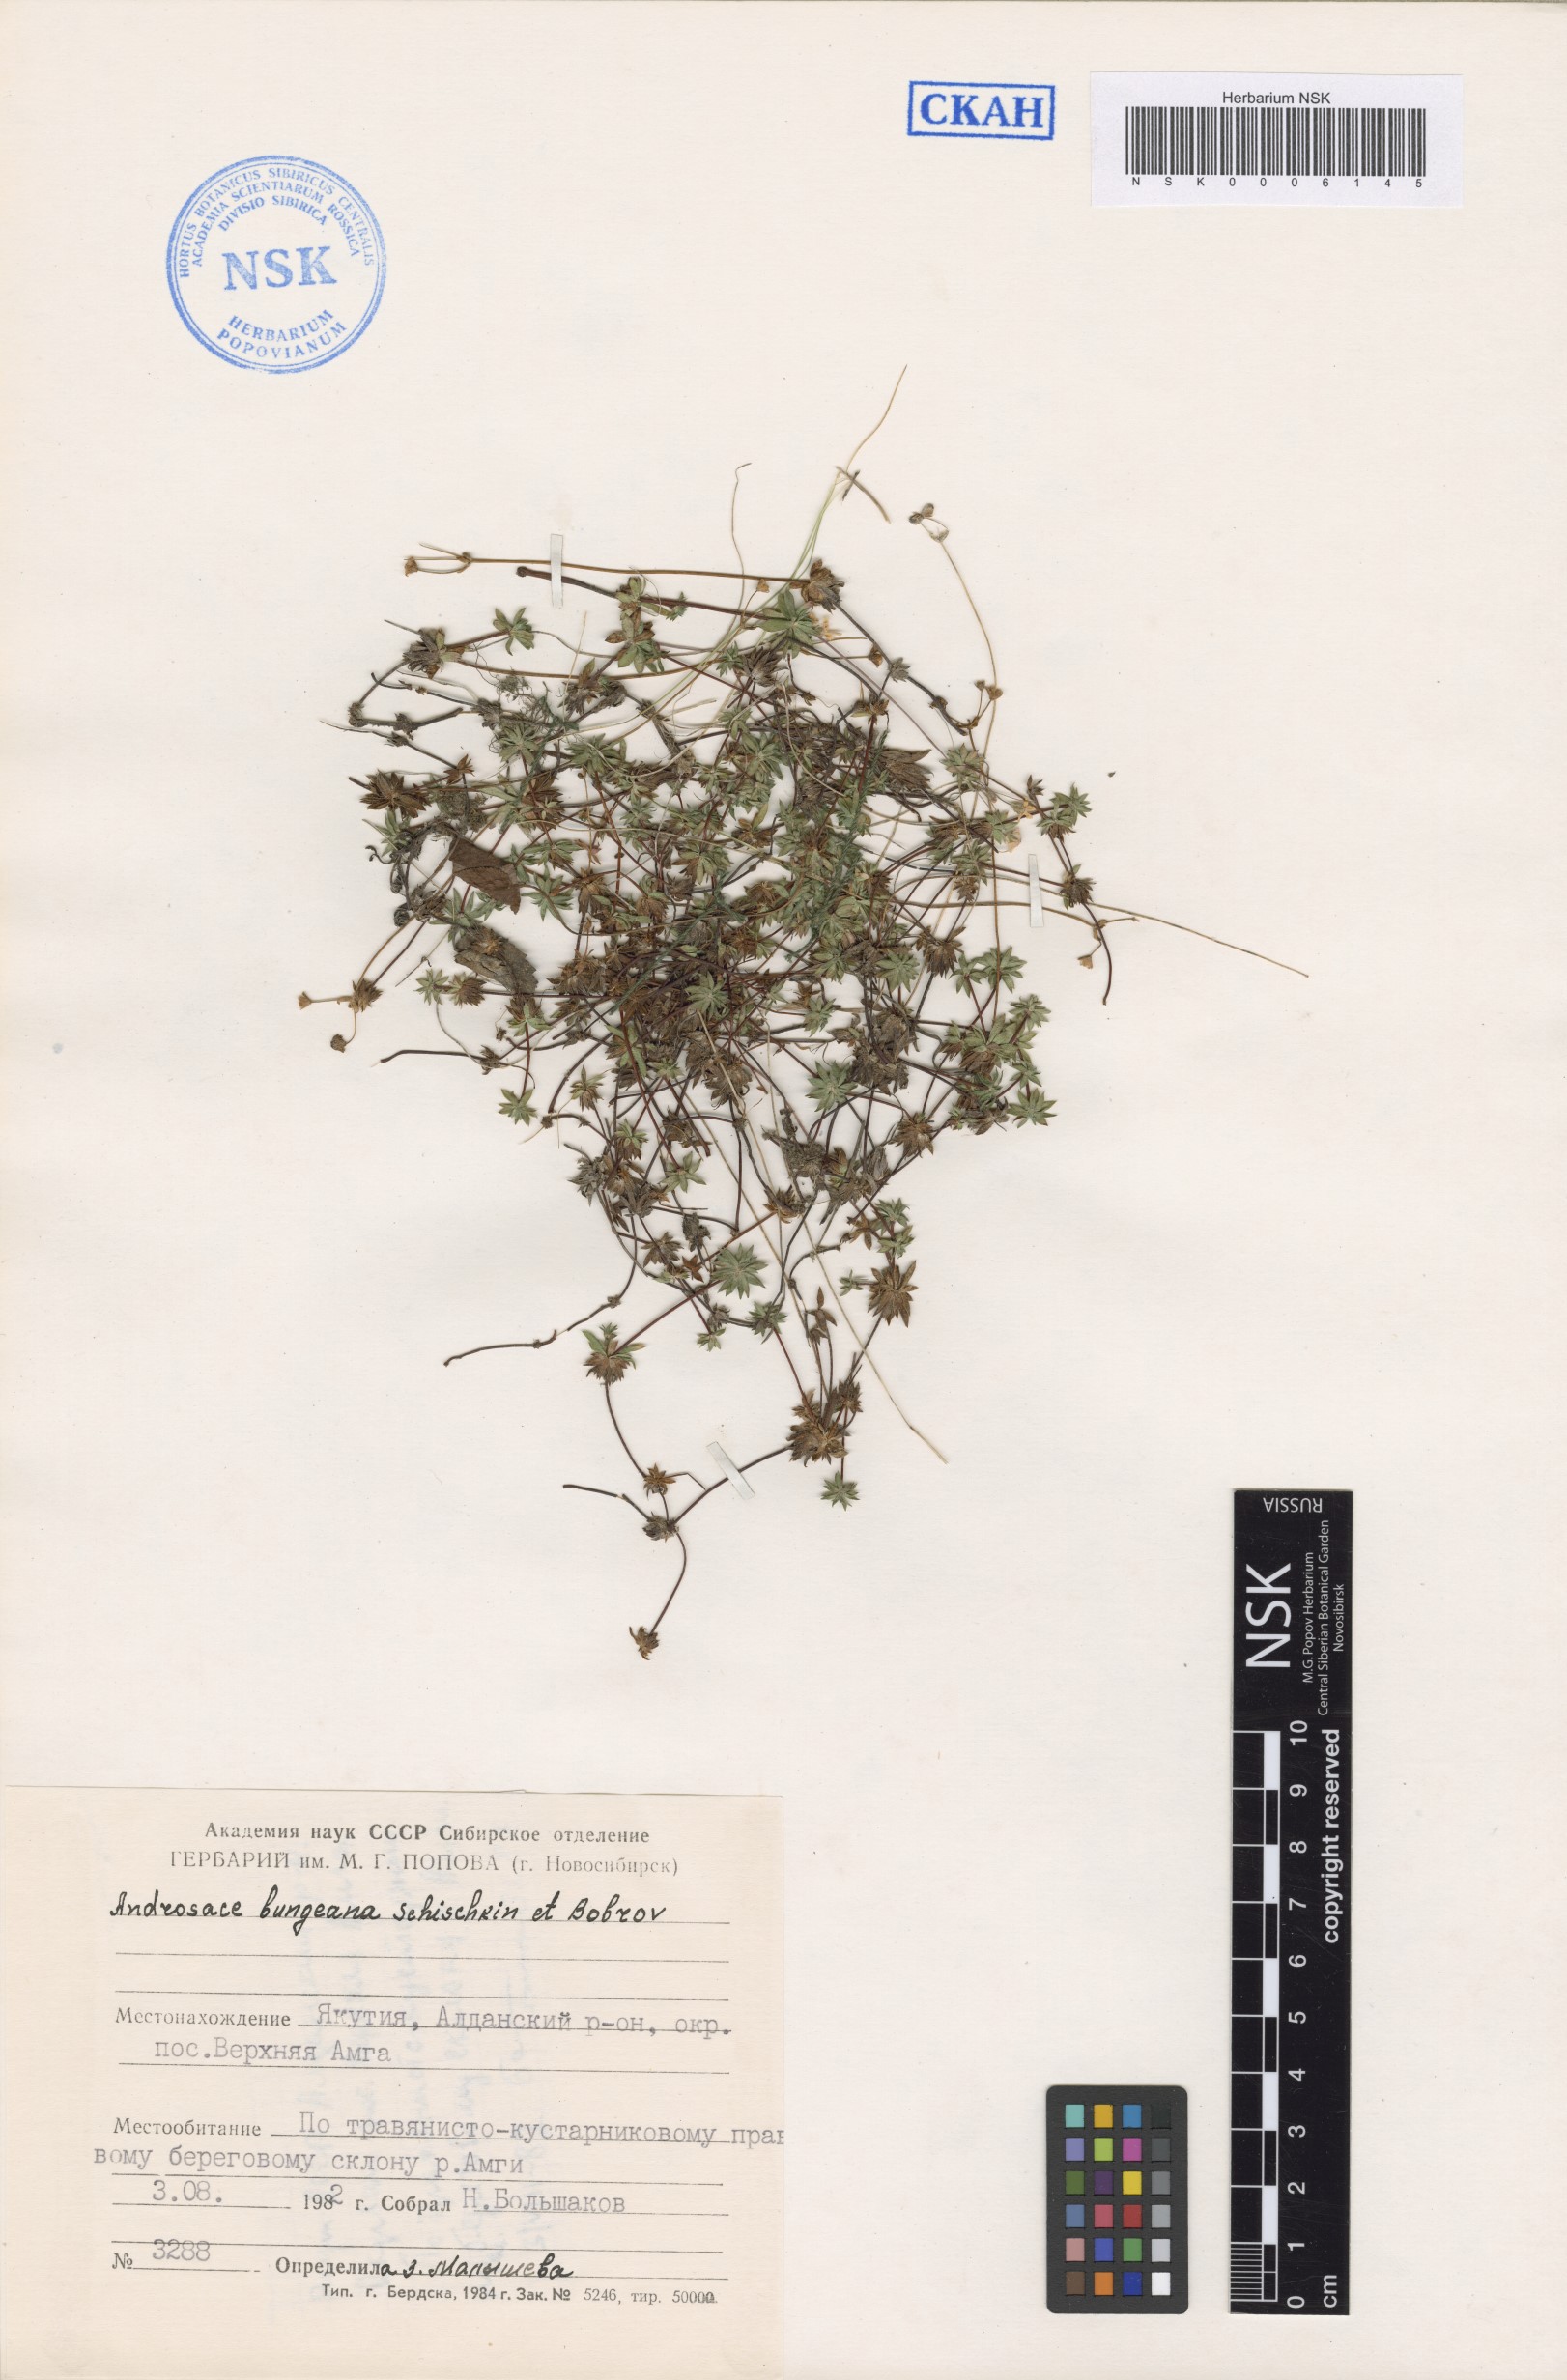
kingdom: Plantae
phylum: Tracheophyta
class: Magnoliopsida
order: Ericales
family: Primulaceae
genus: Androsace
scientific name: Androsace bungeana
